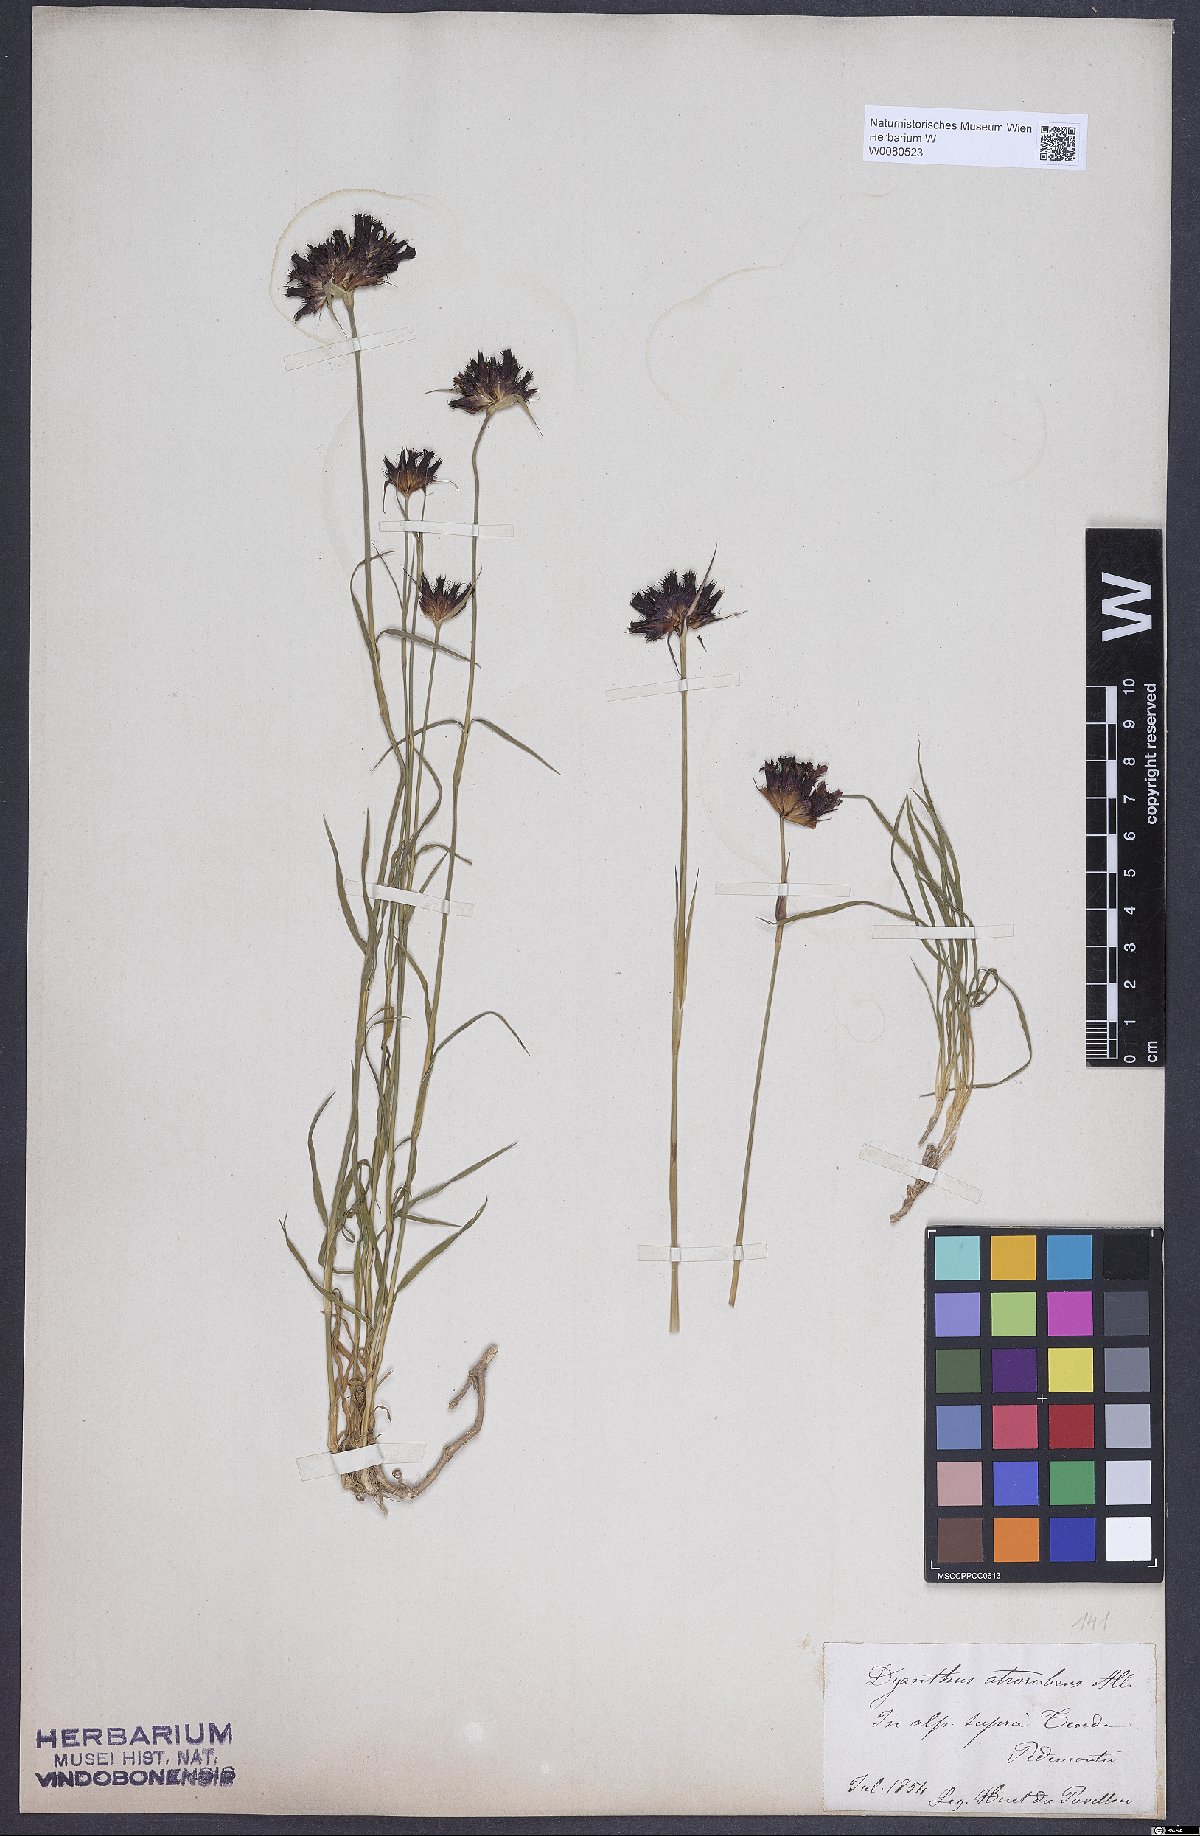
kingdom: Plantae
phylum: Tracheophyta
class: Magnoliopsida
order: Caryophyllales
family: Caryophyllaceae
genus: Dianthus
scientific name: Dianthus carthusianorum
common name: Carthusian pink
